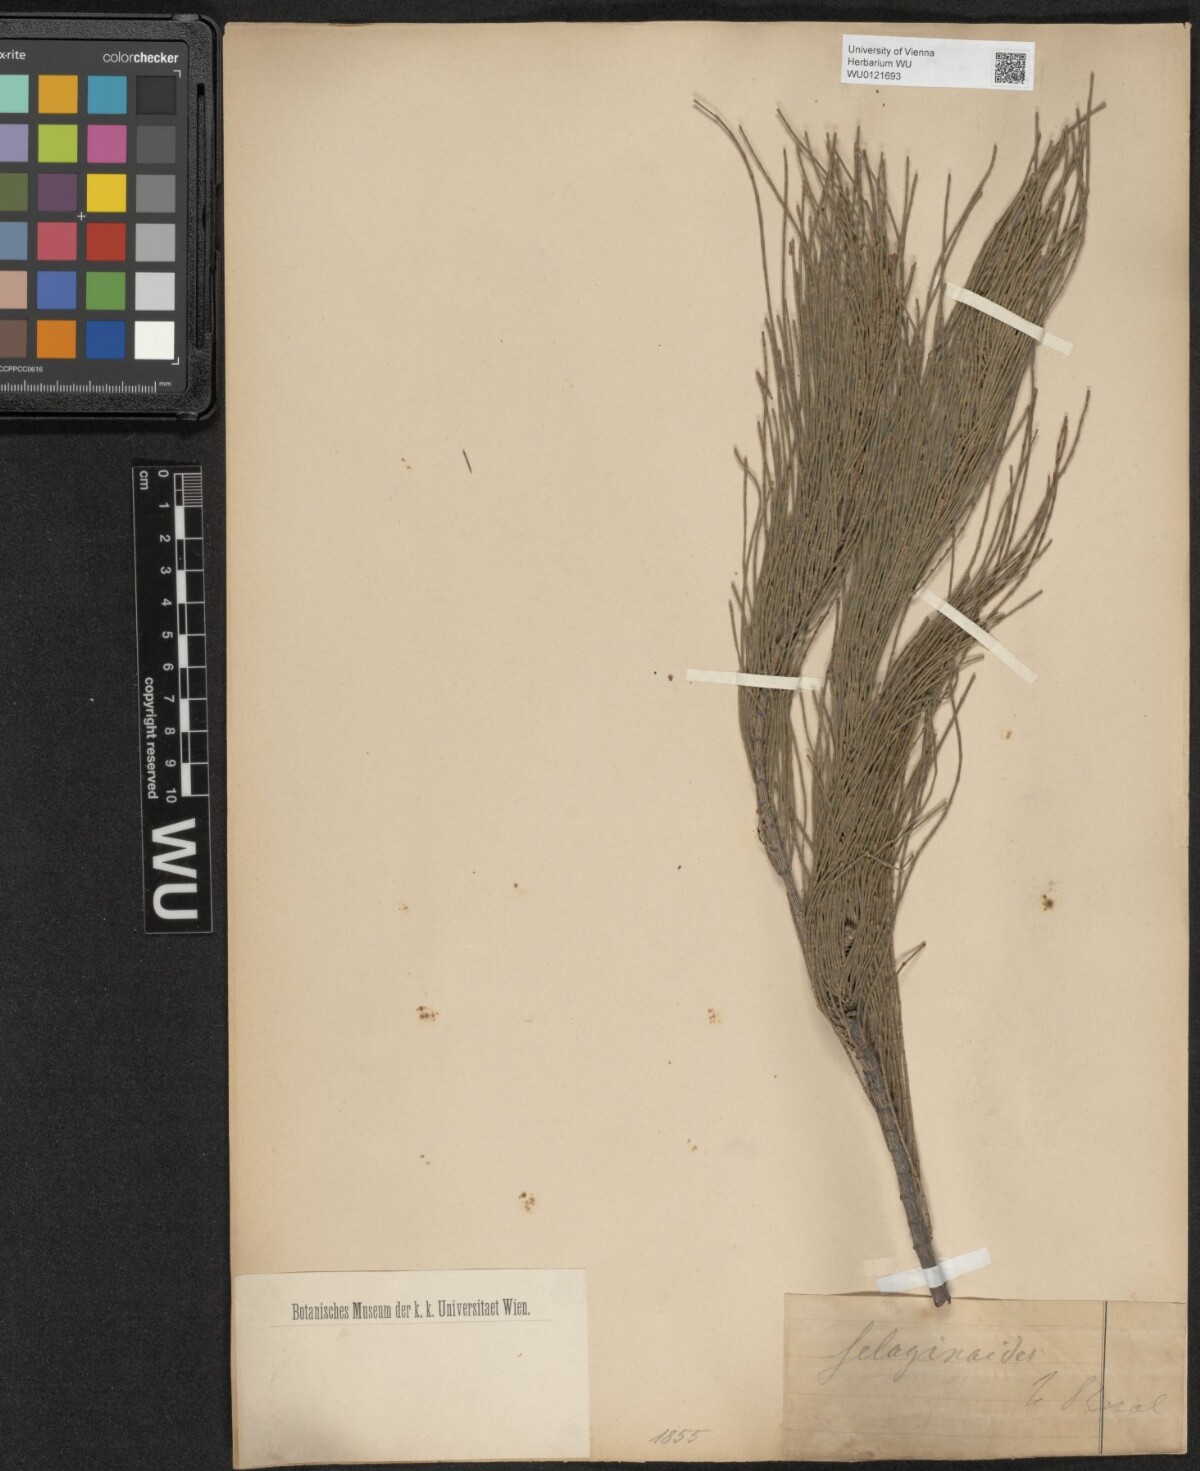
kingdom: Plantae
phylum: Tracheophyta
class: Magnoliopsida
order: Fagales
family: Casuarinaceae
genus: Allocasuarina
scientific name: Allocasuarina humilis
